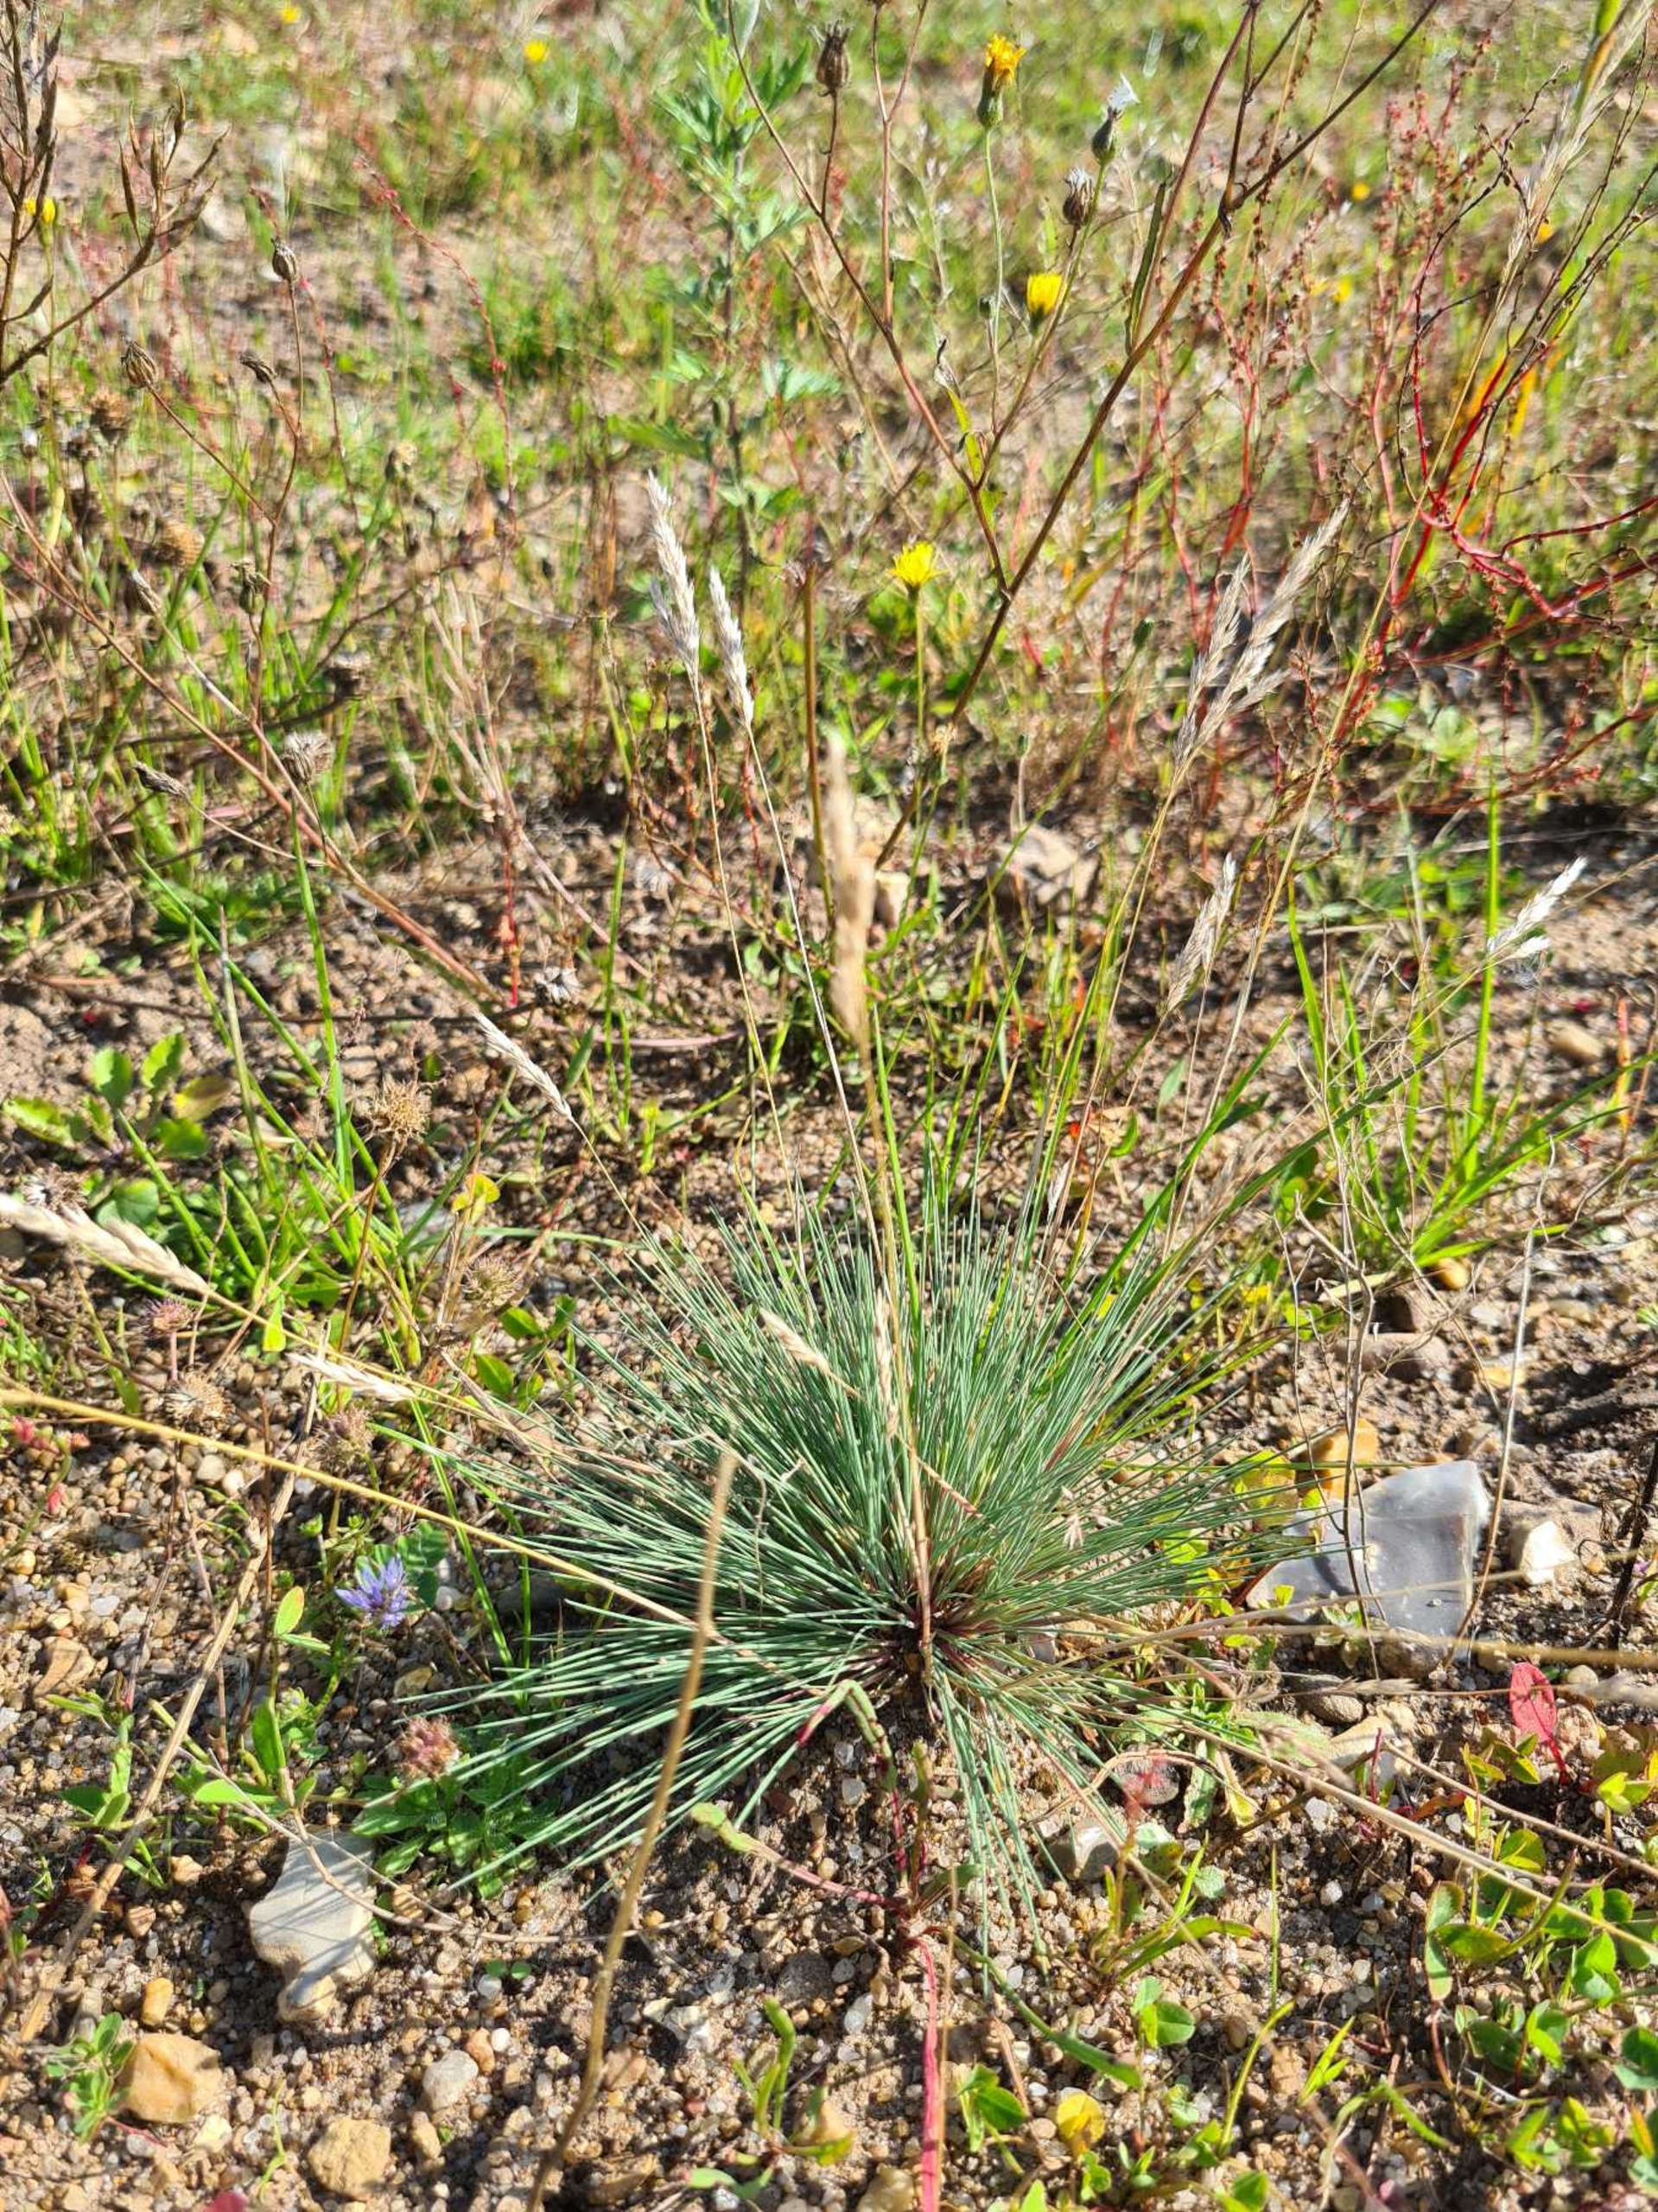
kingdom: Plantae
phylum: Tracheophyta
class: Liliopsida
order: Poales
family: Poaceae
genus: Corynephorus
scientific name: Corynephorus canescens
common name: Sandskæg
